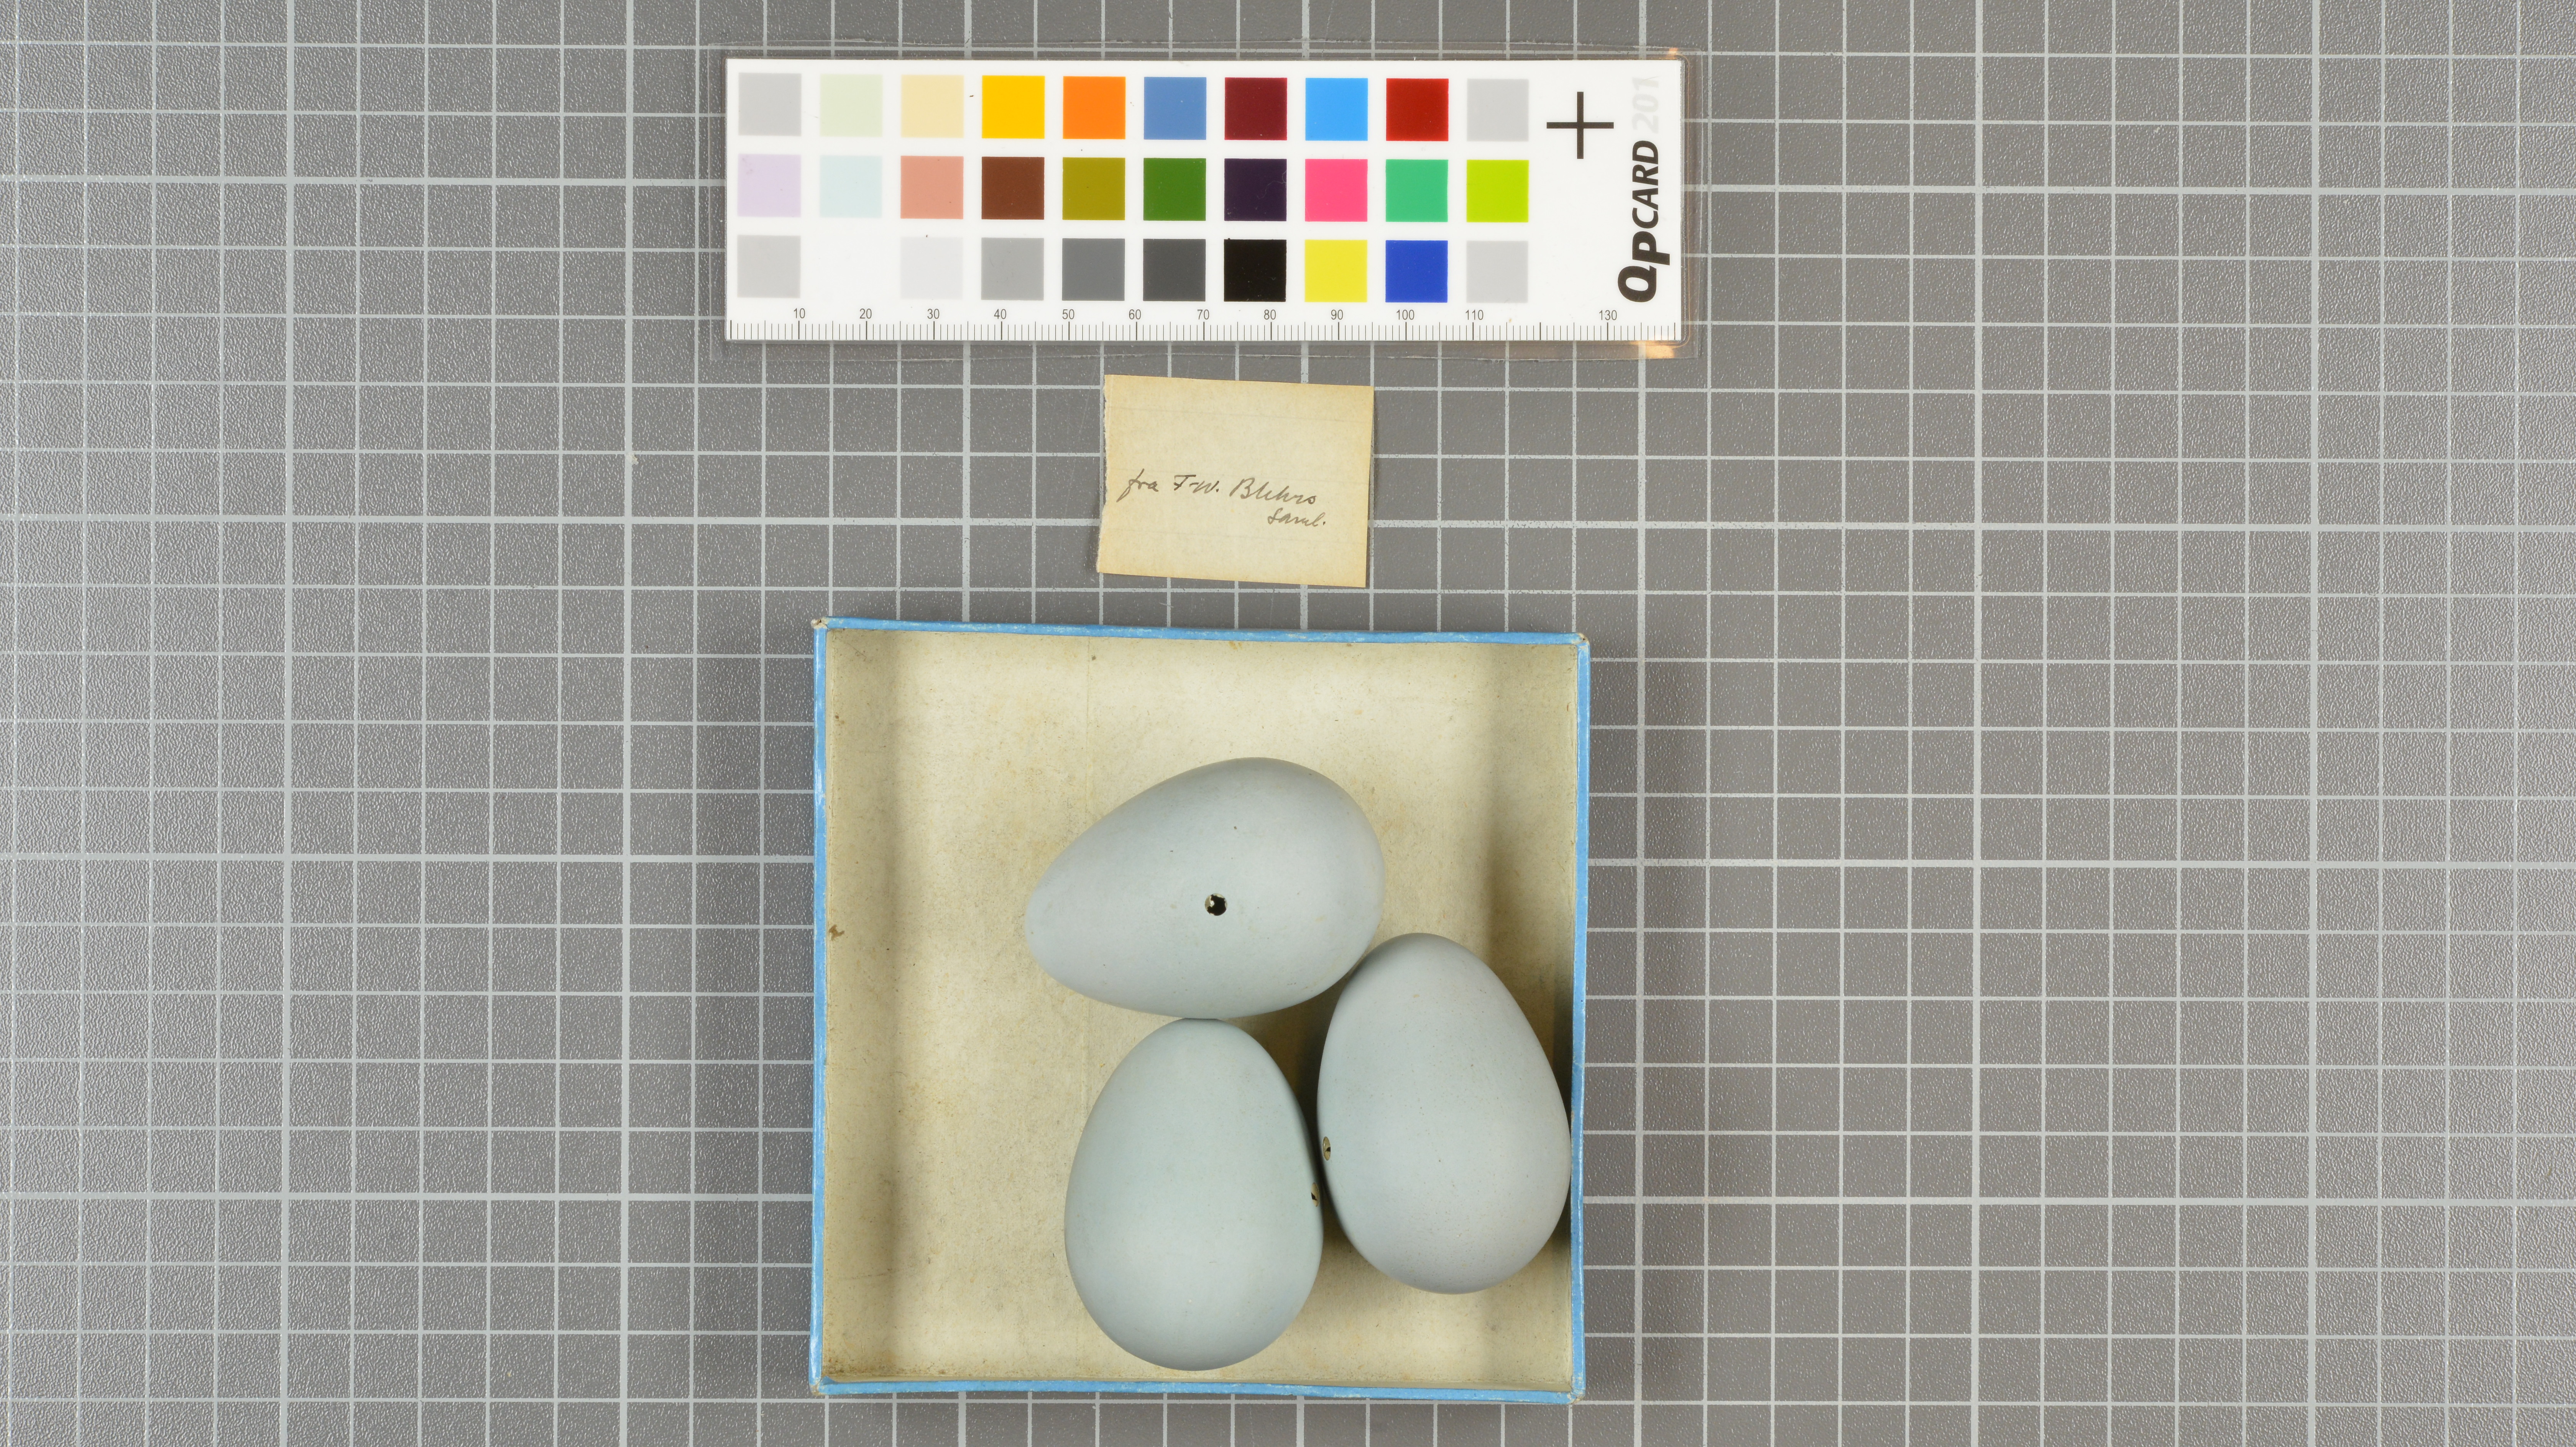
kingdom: Animalia
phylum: Chordata
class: Aves
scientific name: Aves
